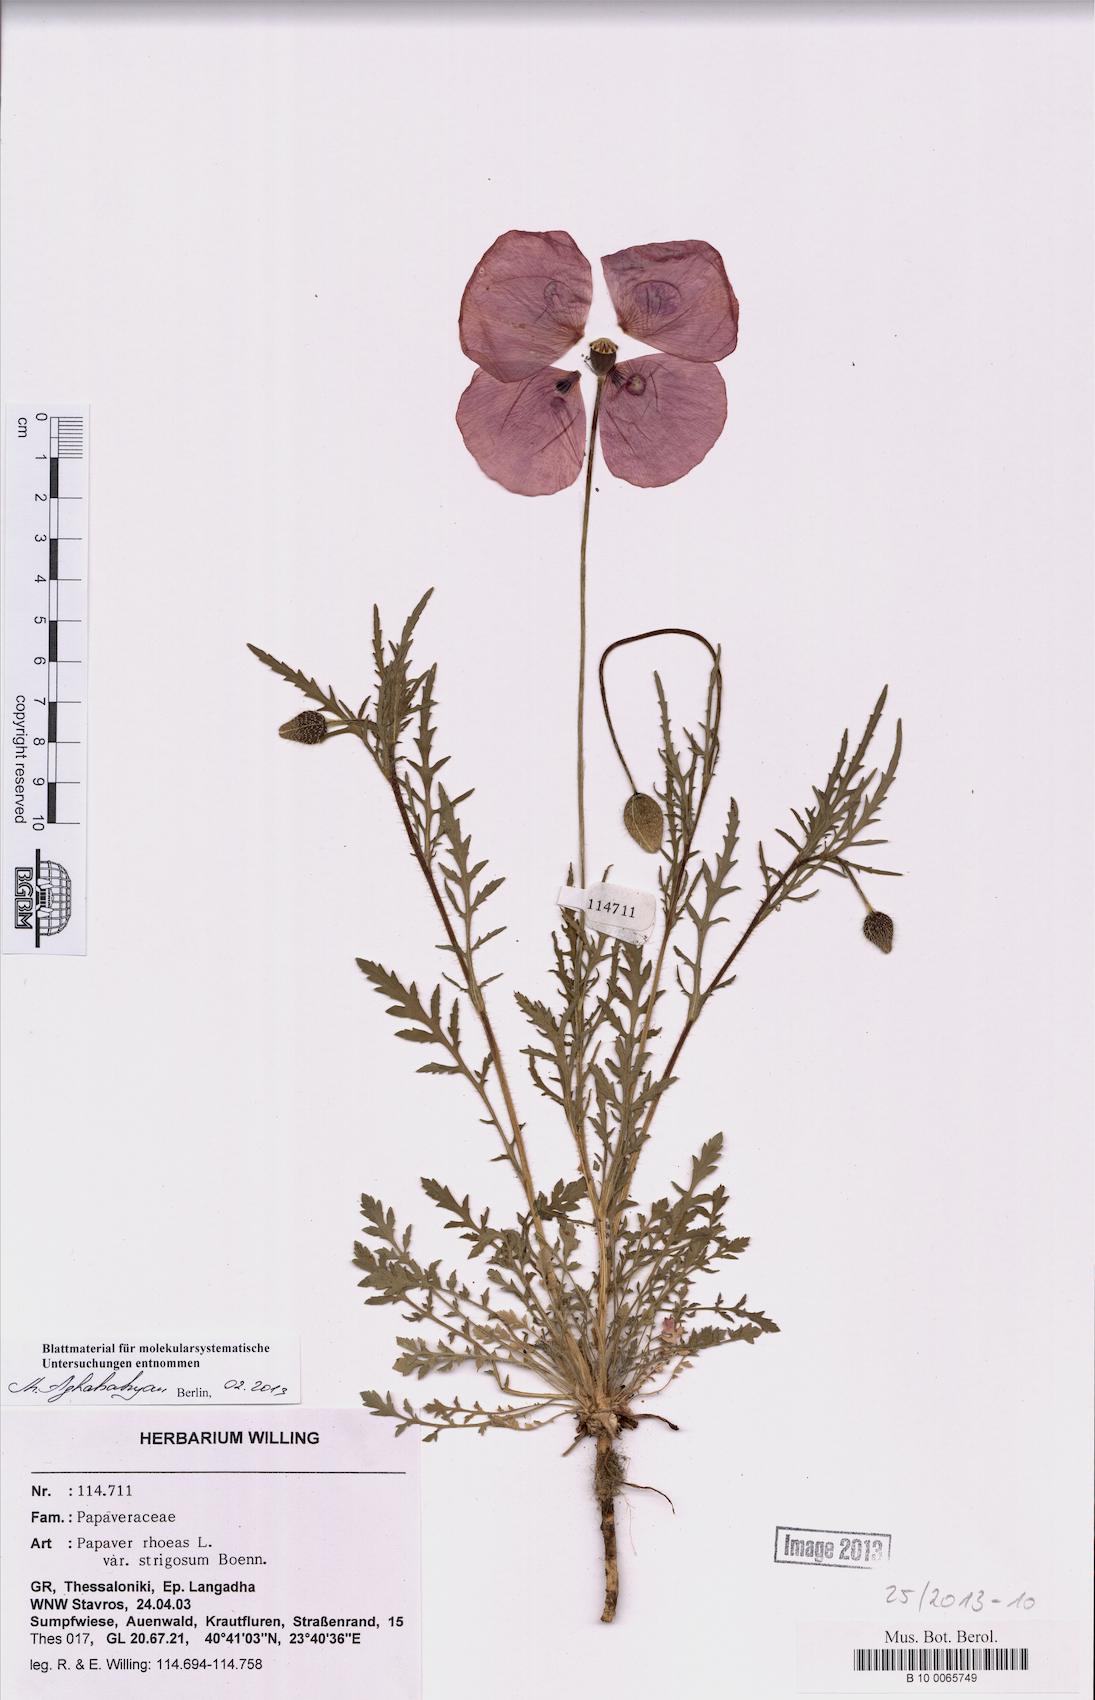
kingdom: Plantae
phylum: Tracheophyta
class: Magnoliopsida
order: Ranunculales
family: Papaveraceae
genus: Papaver
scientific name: Papaver rhoeas
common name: Corn poppy
